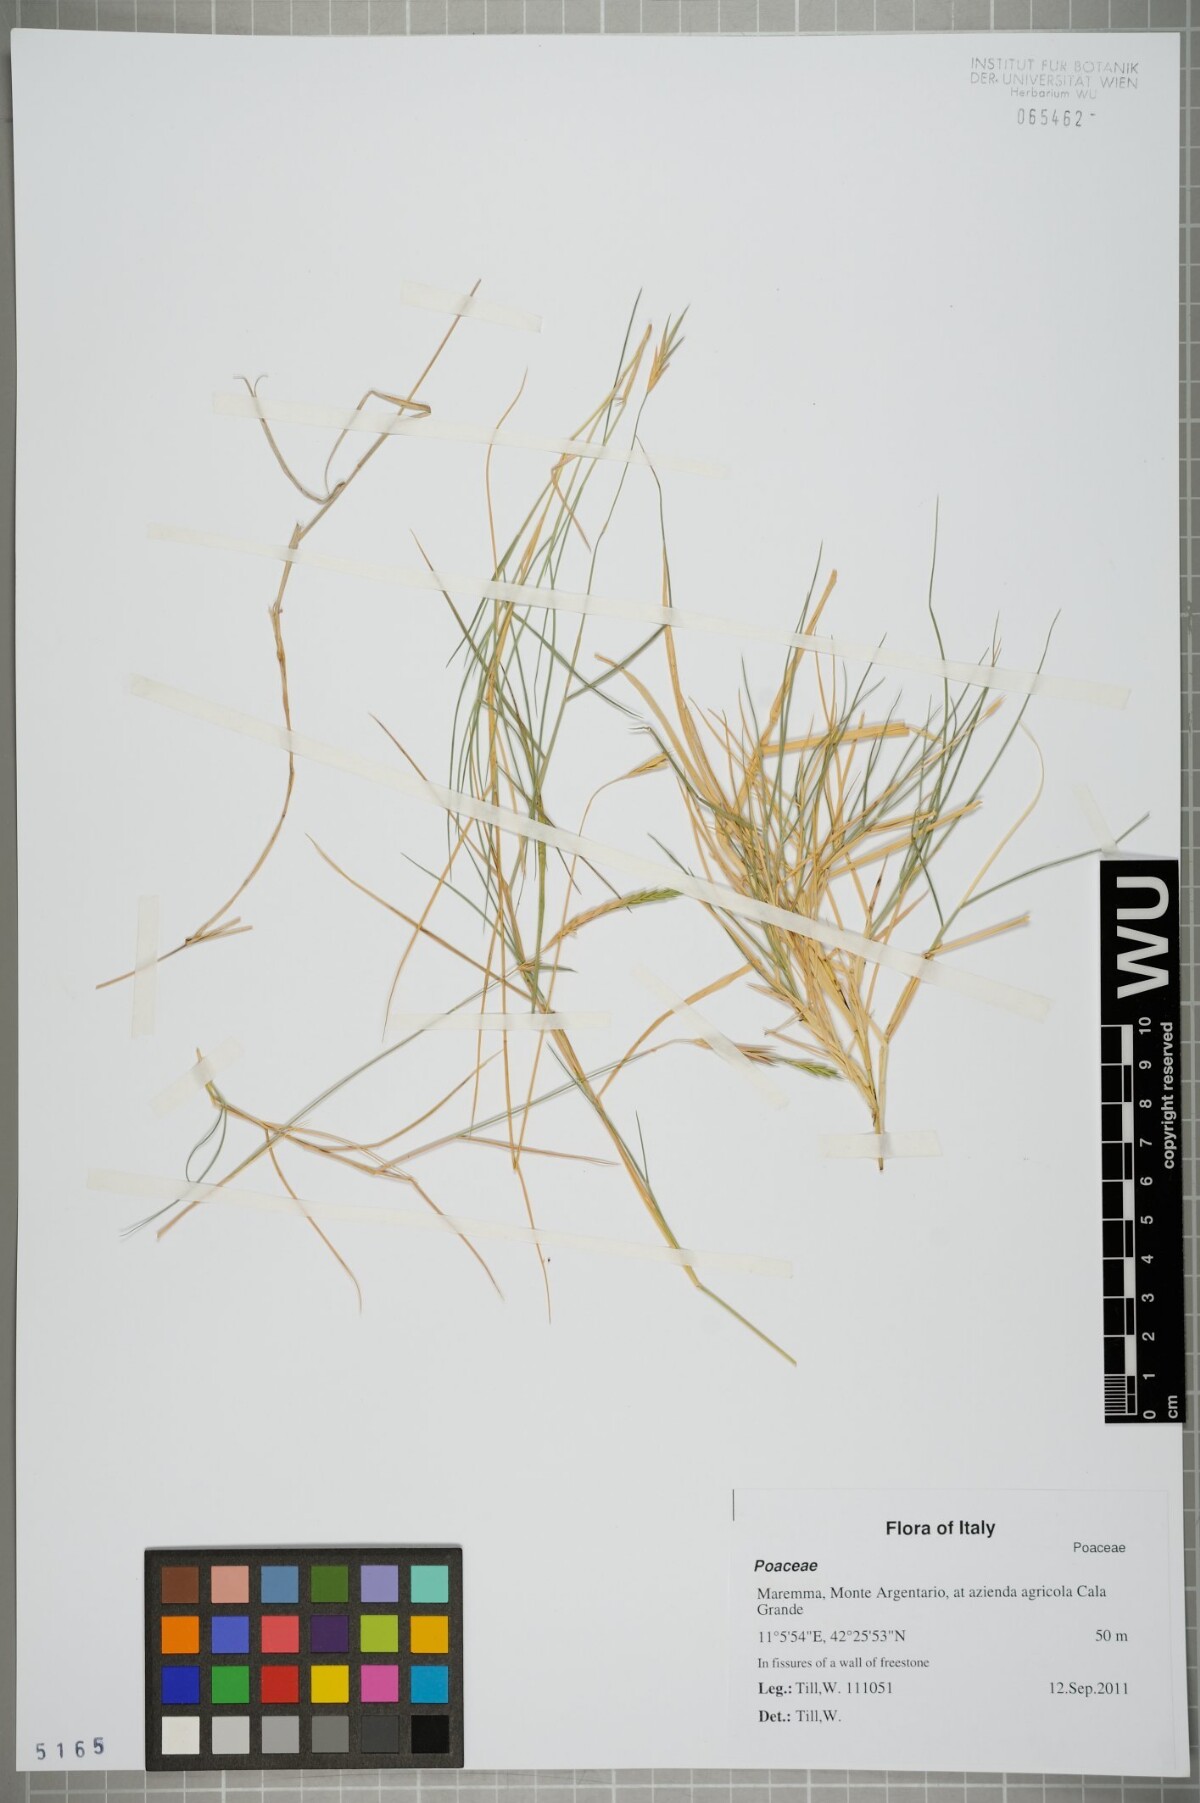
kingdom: Plantae
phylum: Tracheophyta
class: Liliopsida
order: Poales
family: Poaceae
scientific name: Poaceae
